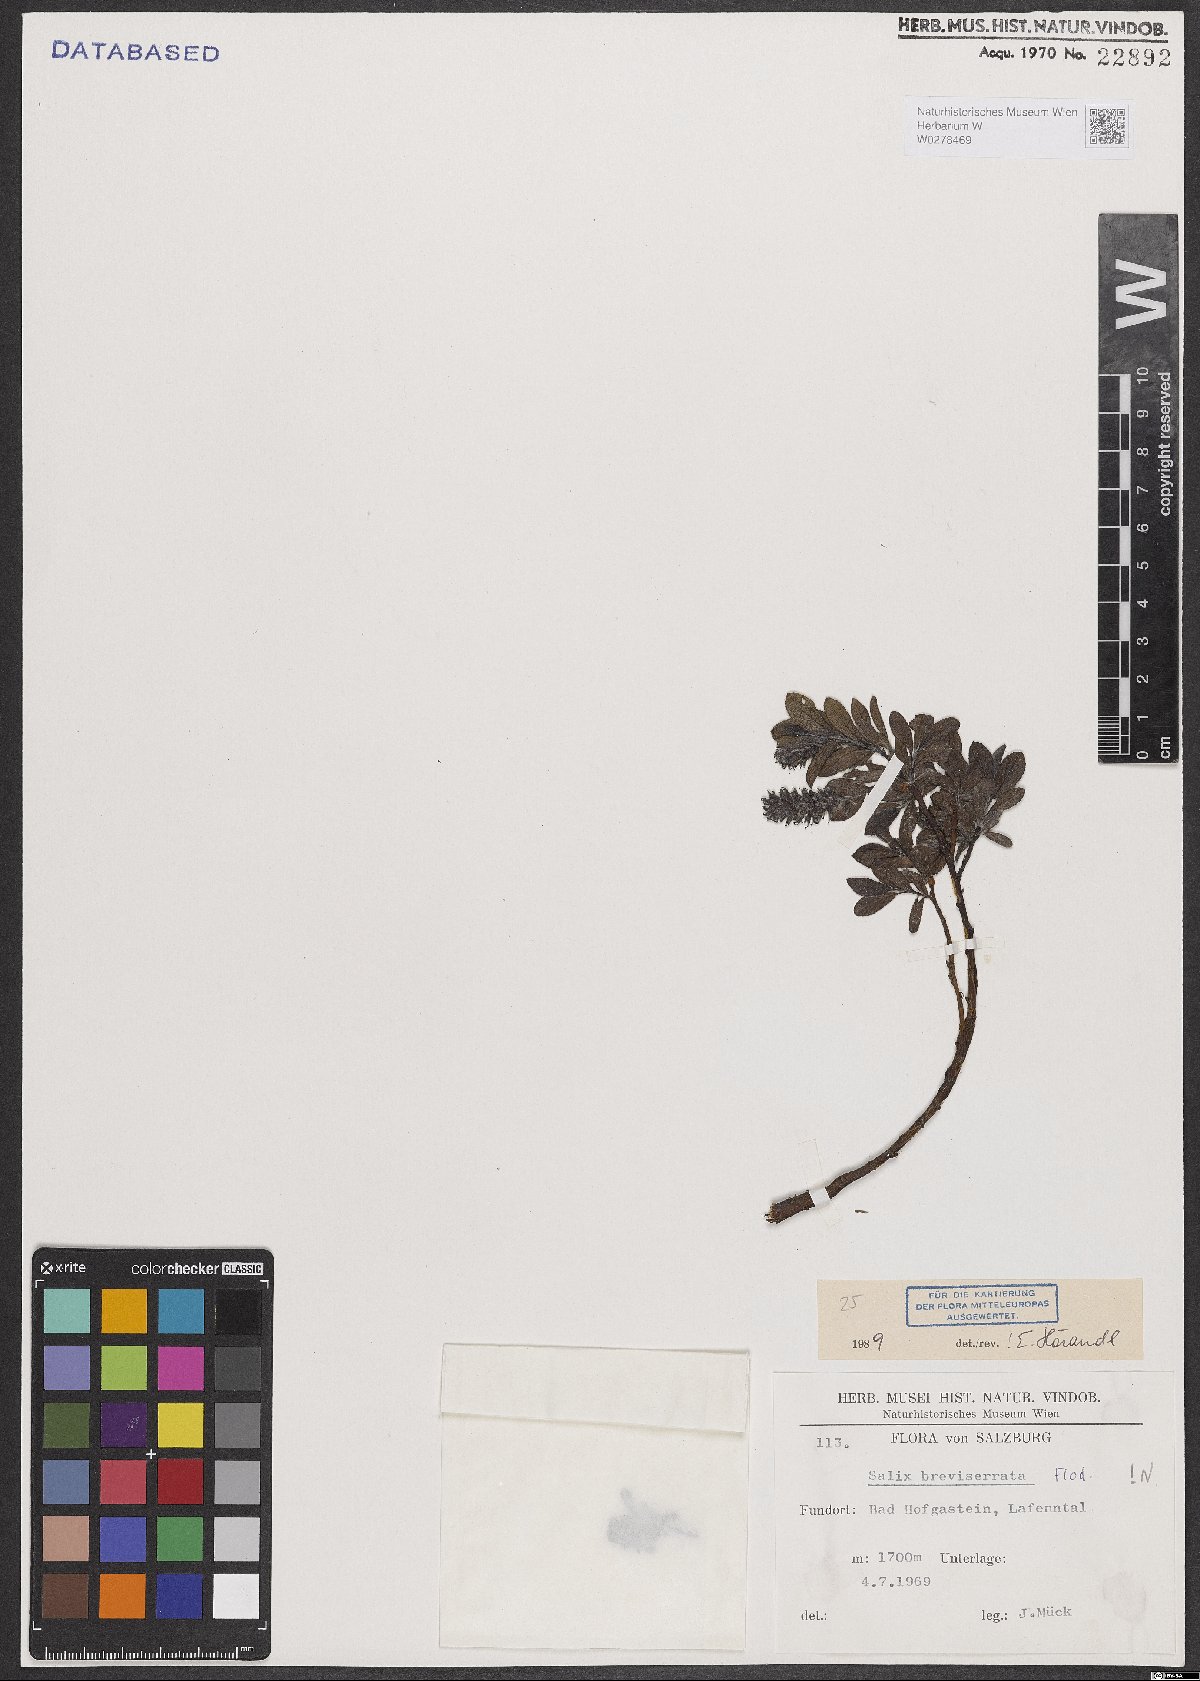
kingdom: Plantae
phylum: Tracheophyta
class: Magnoliopsida
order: Malpighiales
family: Salicaceae
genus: Salix
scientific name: Salix breviserrata
